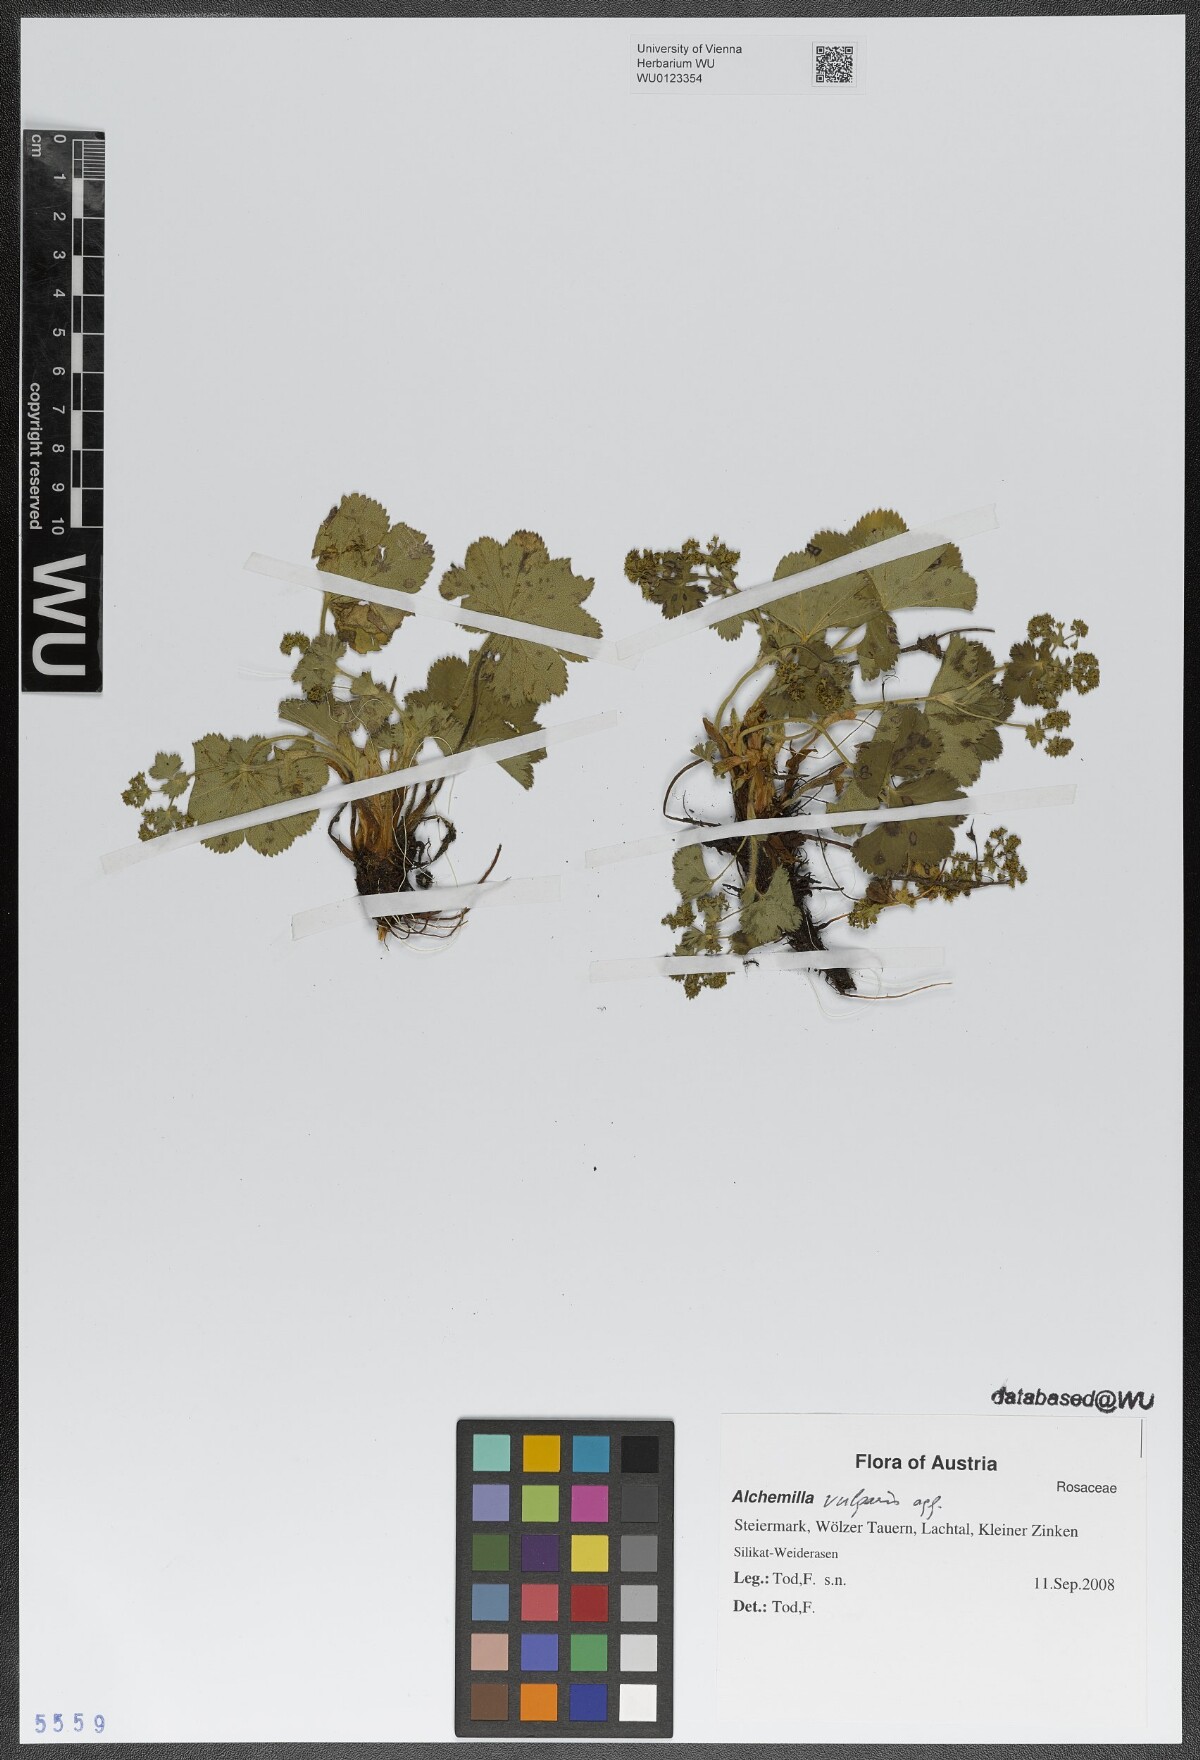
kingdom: Plantae
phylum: Tracheophyta
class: Magnoliopsida
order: Rosales
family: Rosaceae
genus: Alchemilla
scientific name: Alchemilla vulgaris
